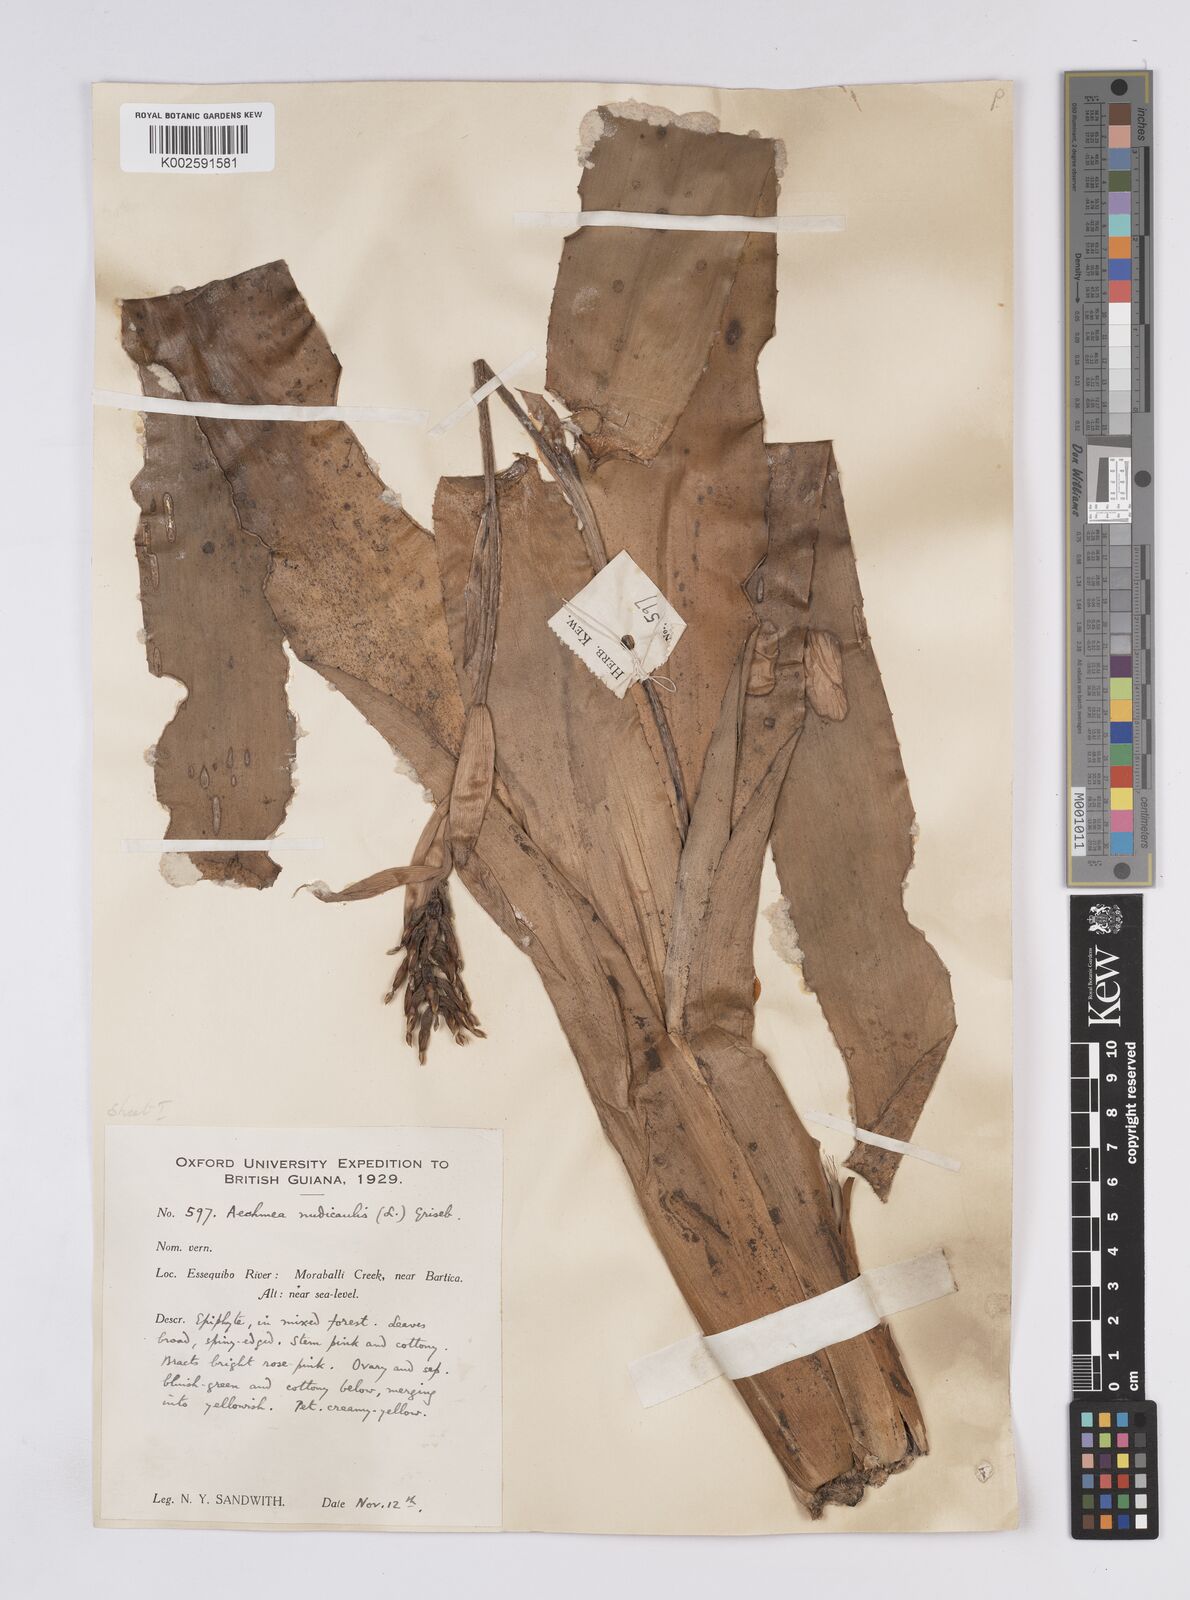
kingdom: Plantae
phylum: Tracheophyta
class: Liliopsida
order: Poales
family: Bromeliaceae
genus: Aechmea
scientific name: Aechmea nudicaulis
